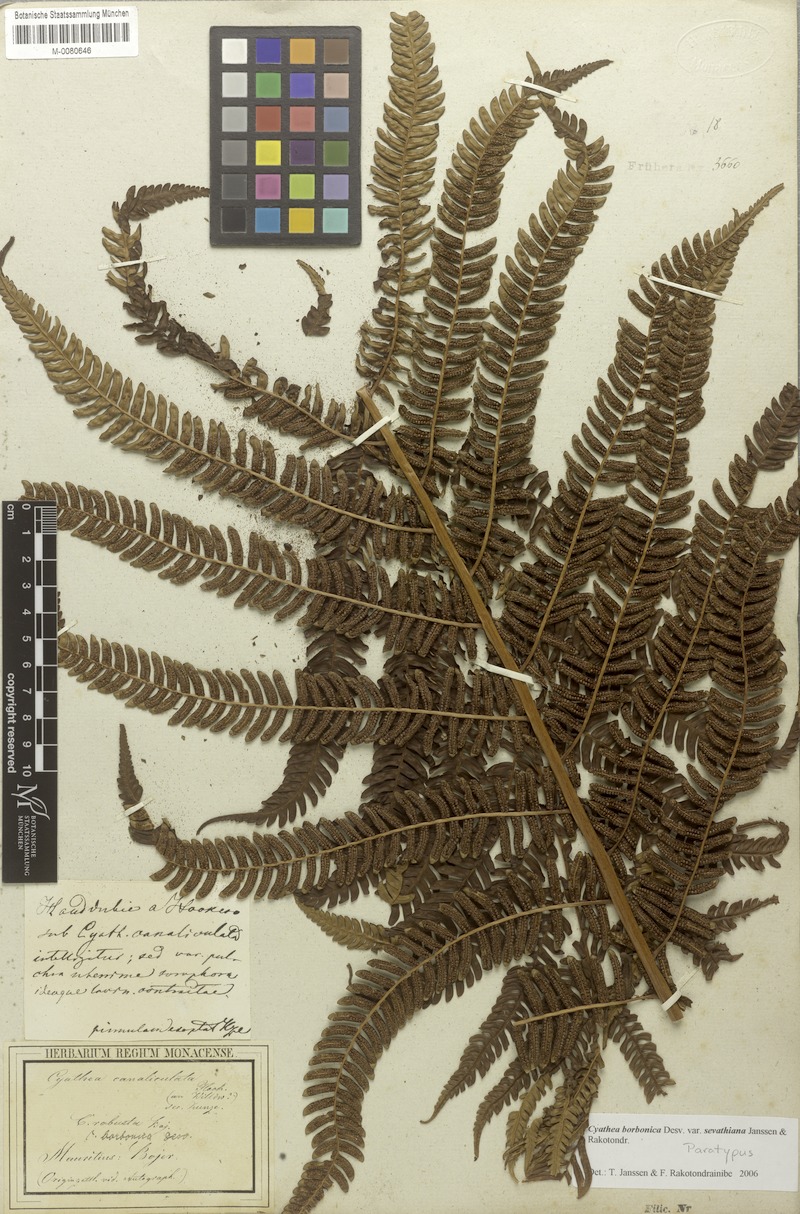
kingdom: Plantae
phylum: Tracheophyta
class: Polypodiopsida
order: Cyatheales
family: Cyatheaceae
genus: Alsophila
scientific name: Alsophila borbonica
